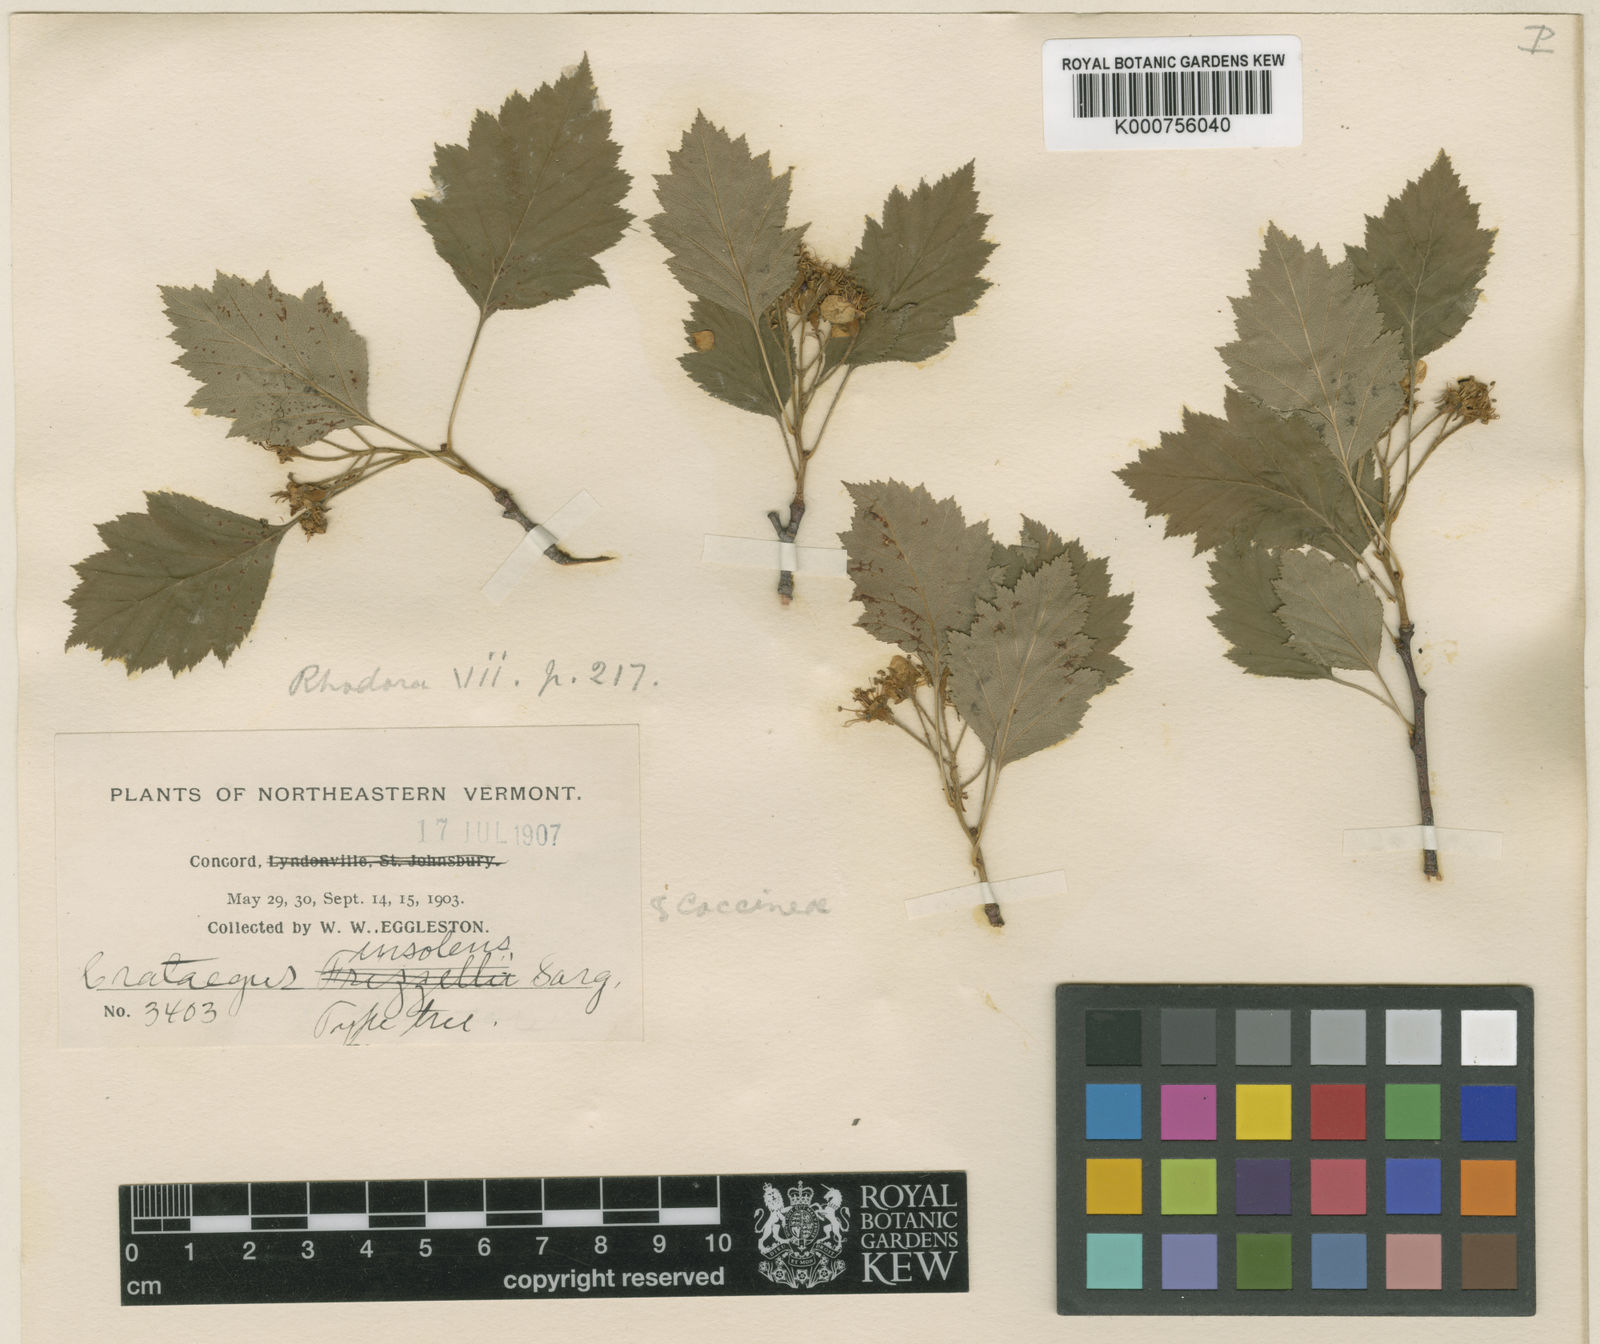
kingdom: Plantae
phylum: Tracheophyta
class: Magnoliopsida
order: Rosales
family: Rosaceae
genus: Crataegus
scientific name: Crataegus lucorum
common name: Grove hawthorn
